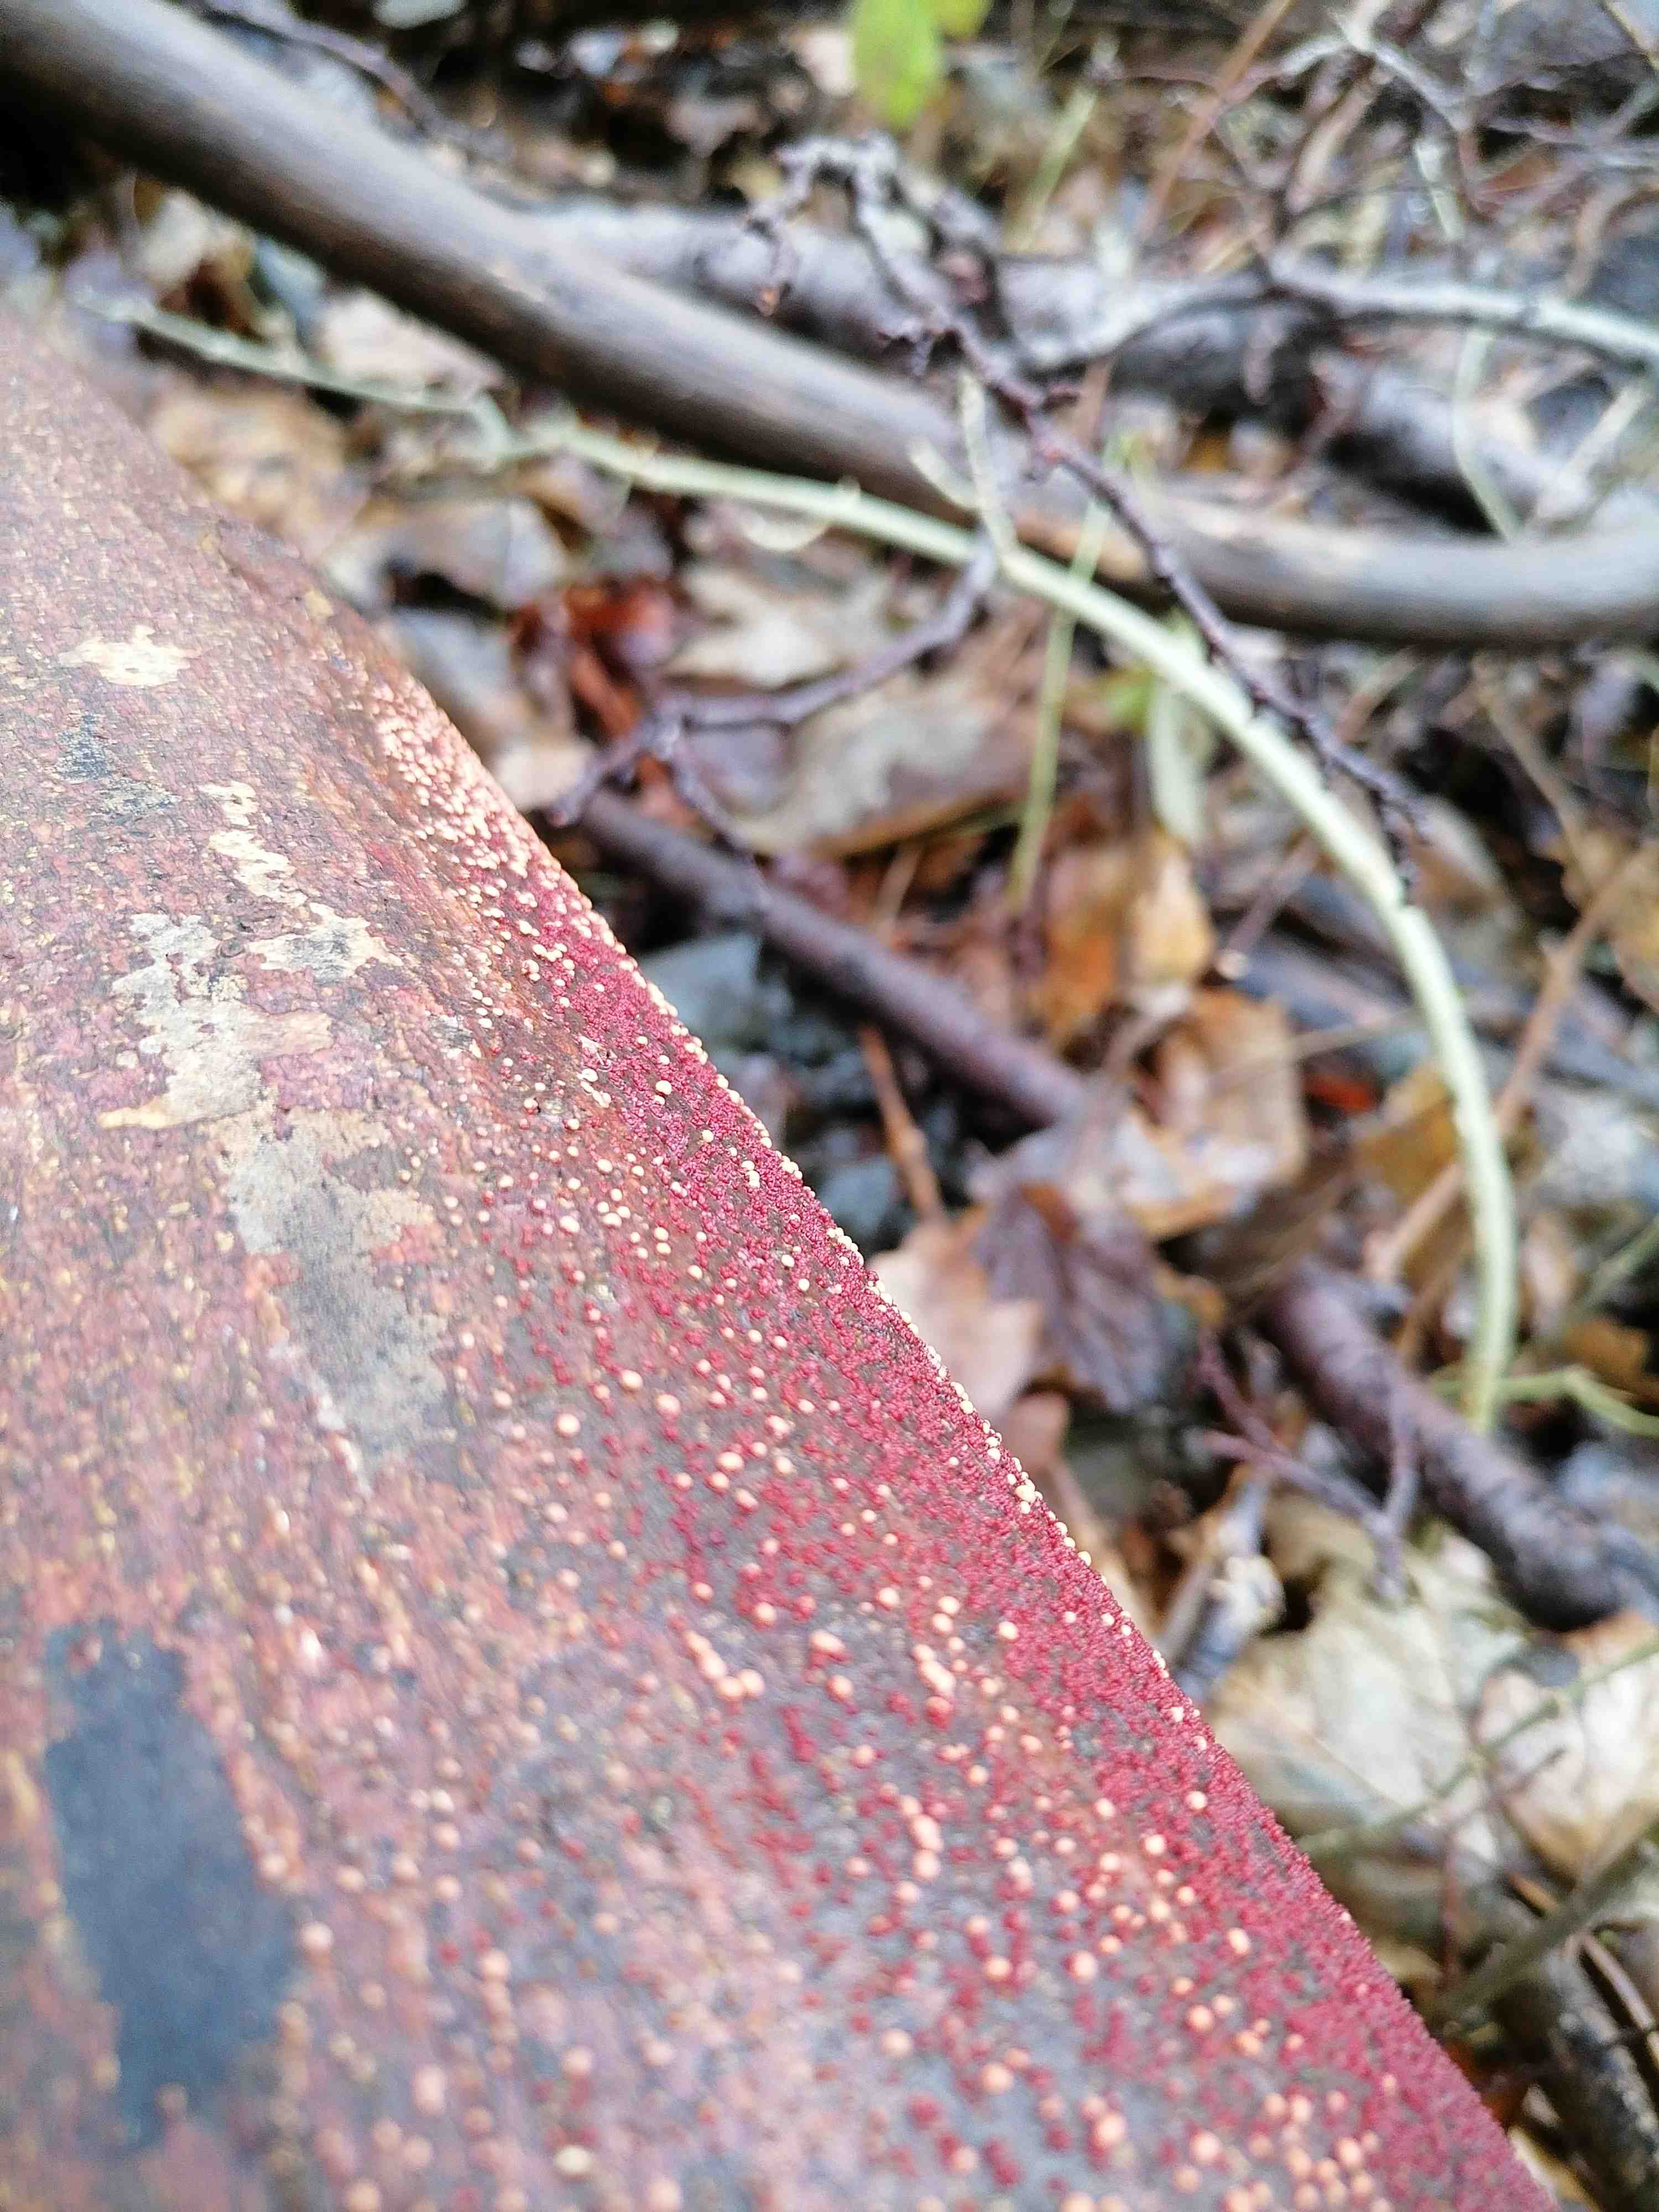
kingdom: Fungi
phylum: Ascomycota
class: Sordariomycetes
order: Hypocreales
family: Nectriaceae
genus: Nectria
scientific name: Nectria cinnabarina
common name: almindelig cinnobersvamp
